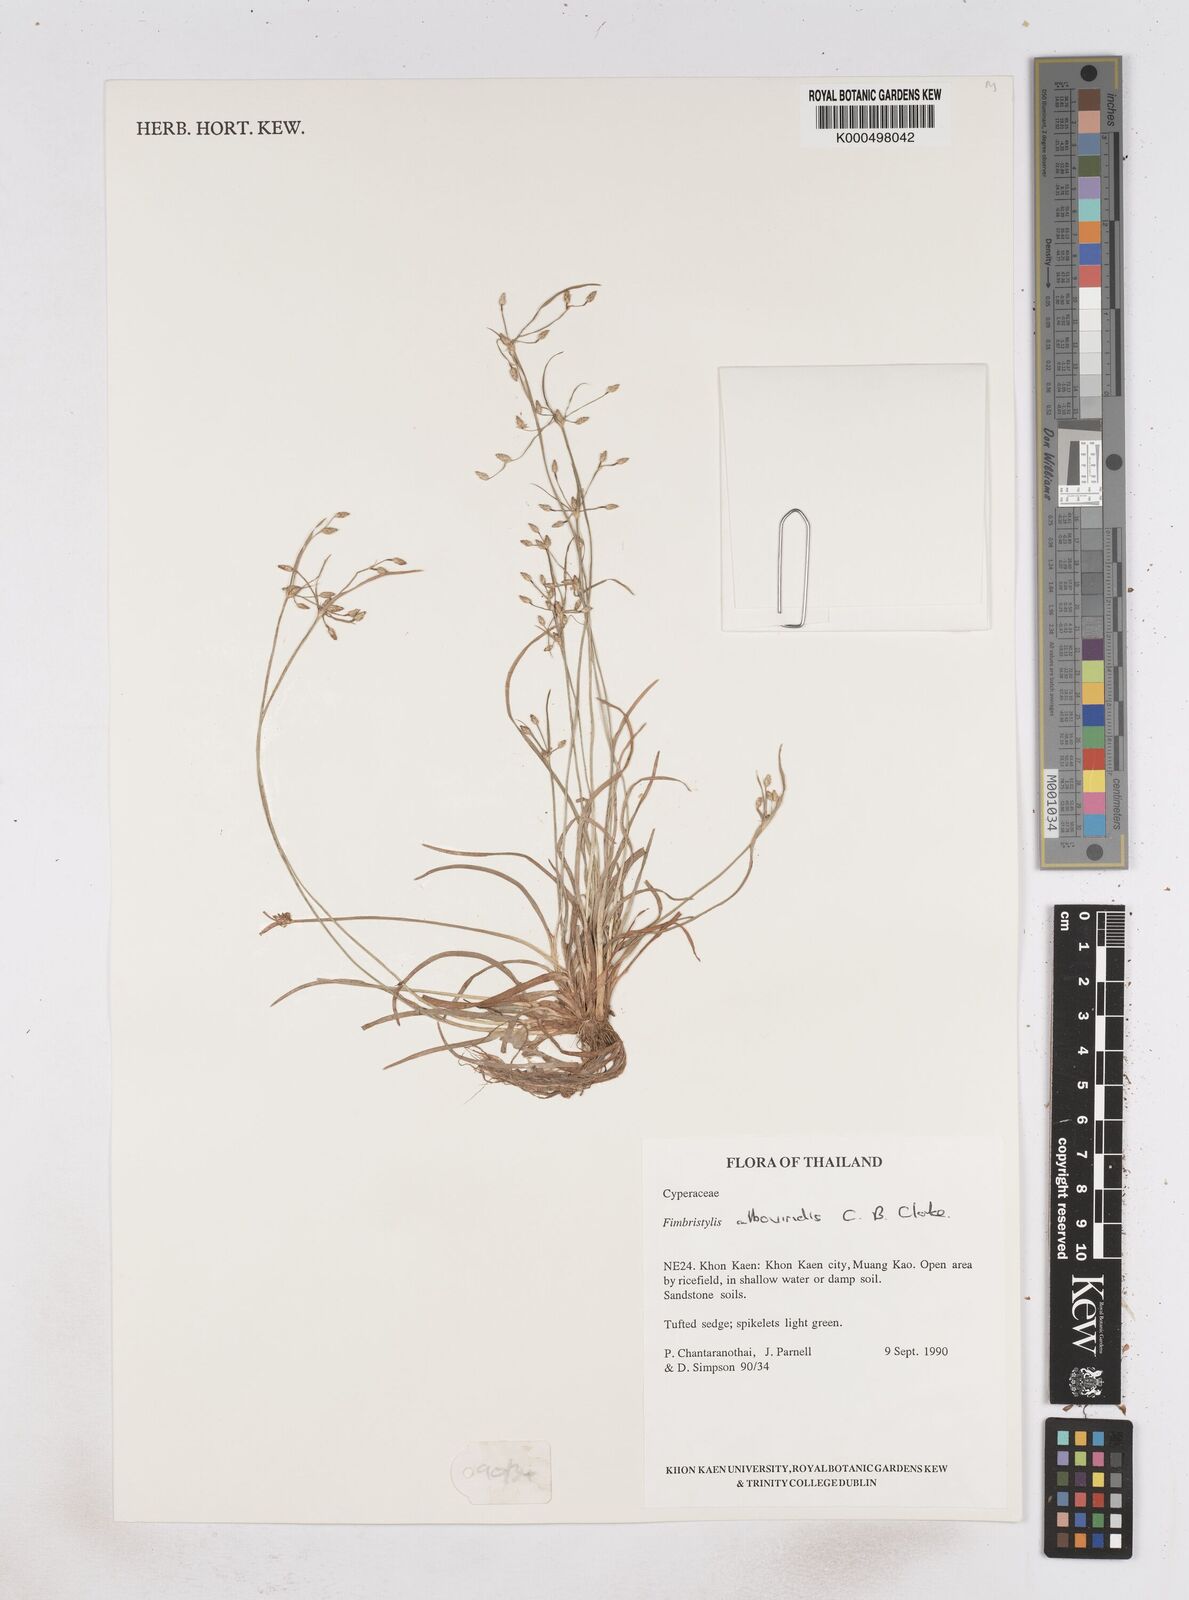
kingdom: Plantae
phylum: Tracheophyta
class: Liliopsida
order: Poales
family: Cyperaceae
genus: Fimbristylis
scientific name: Fimbristylis alboviridis
